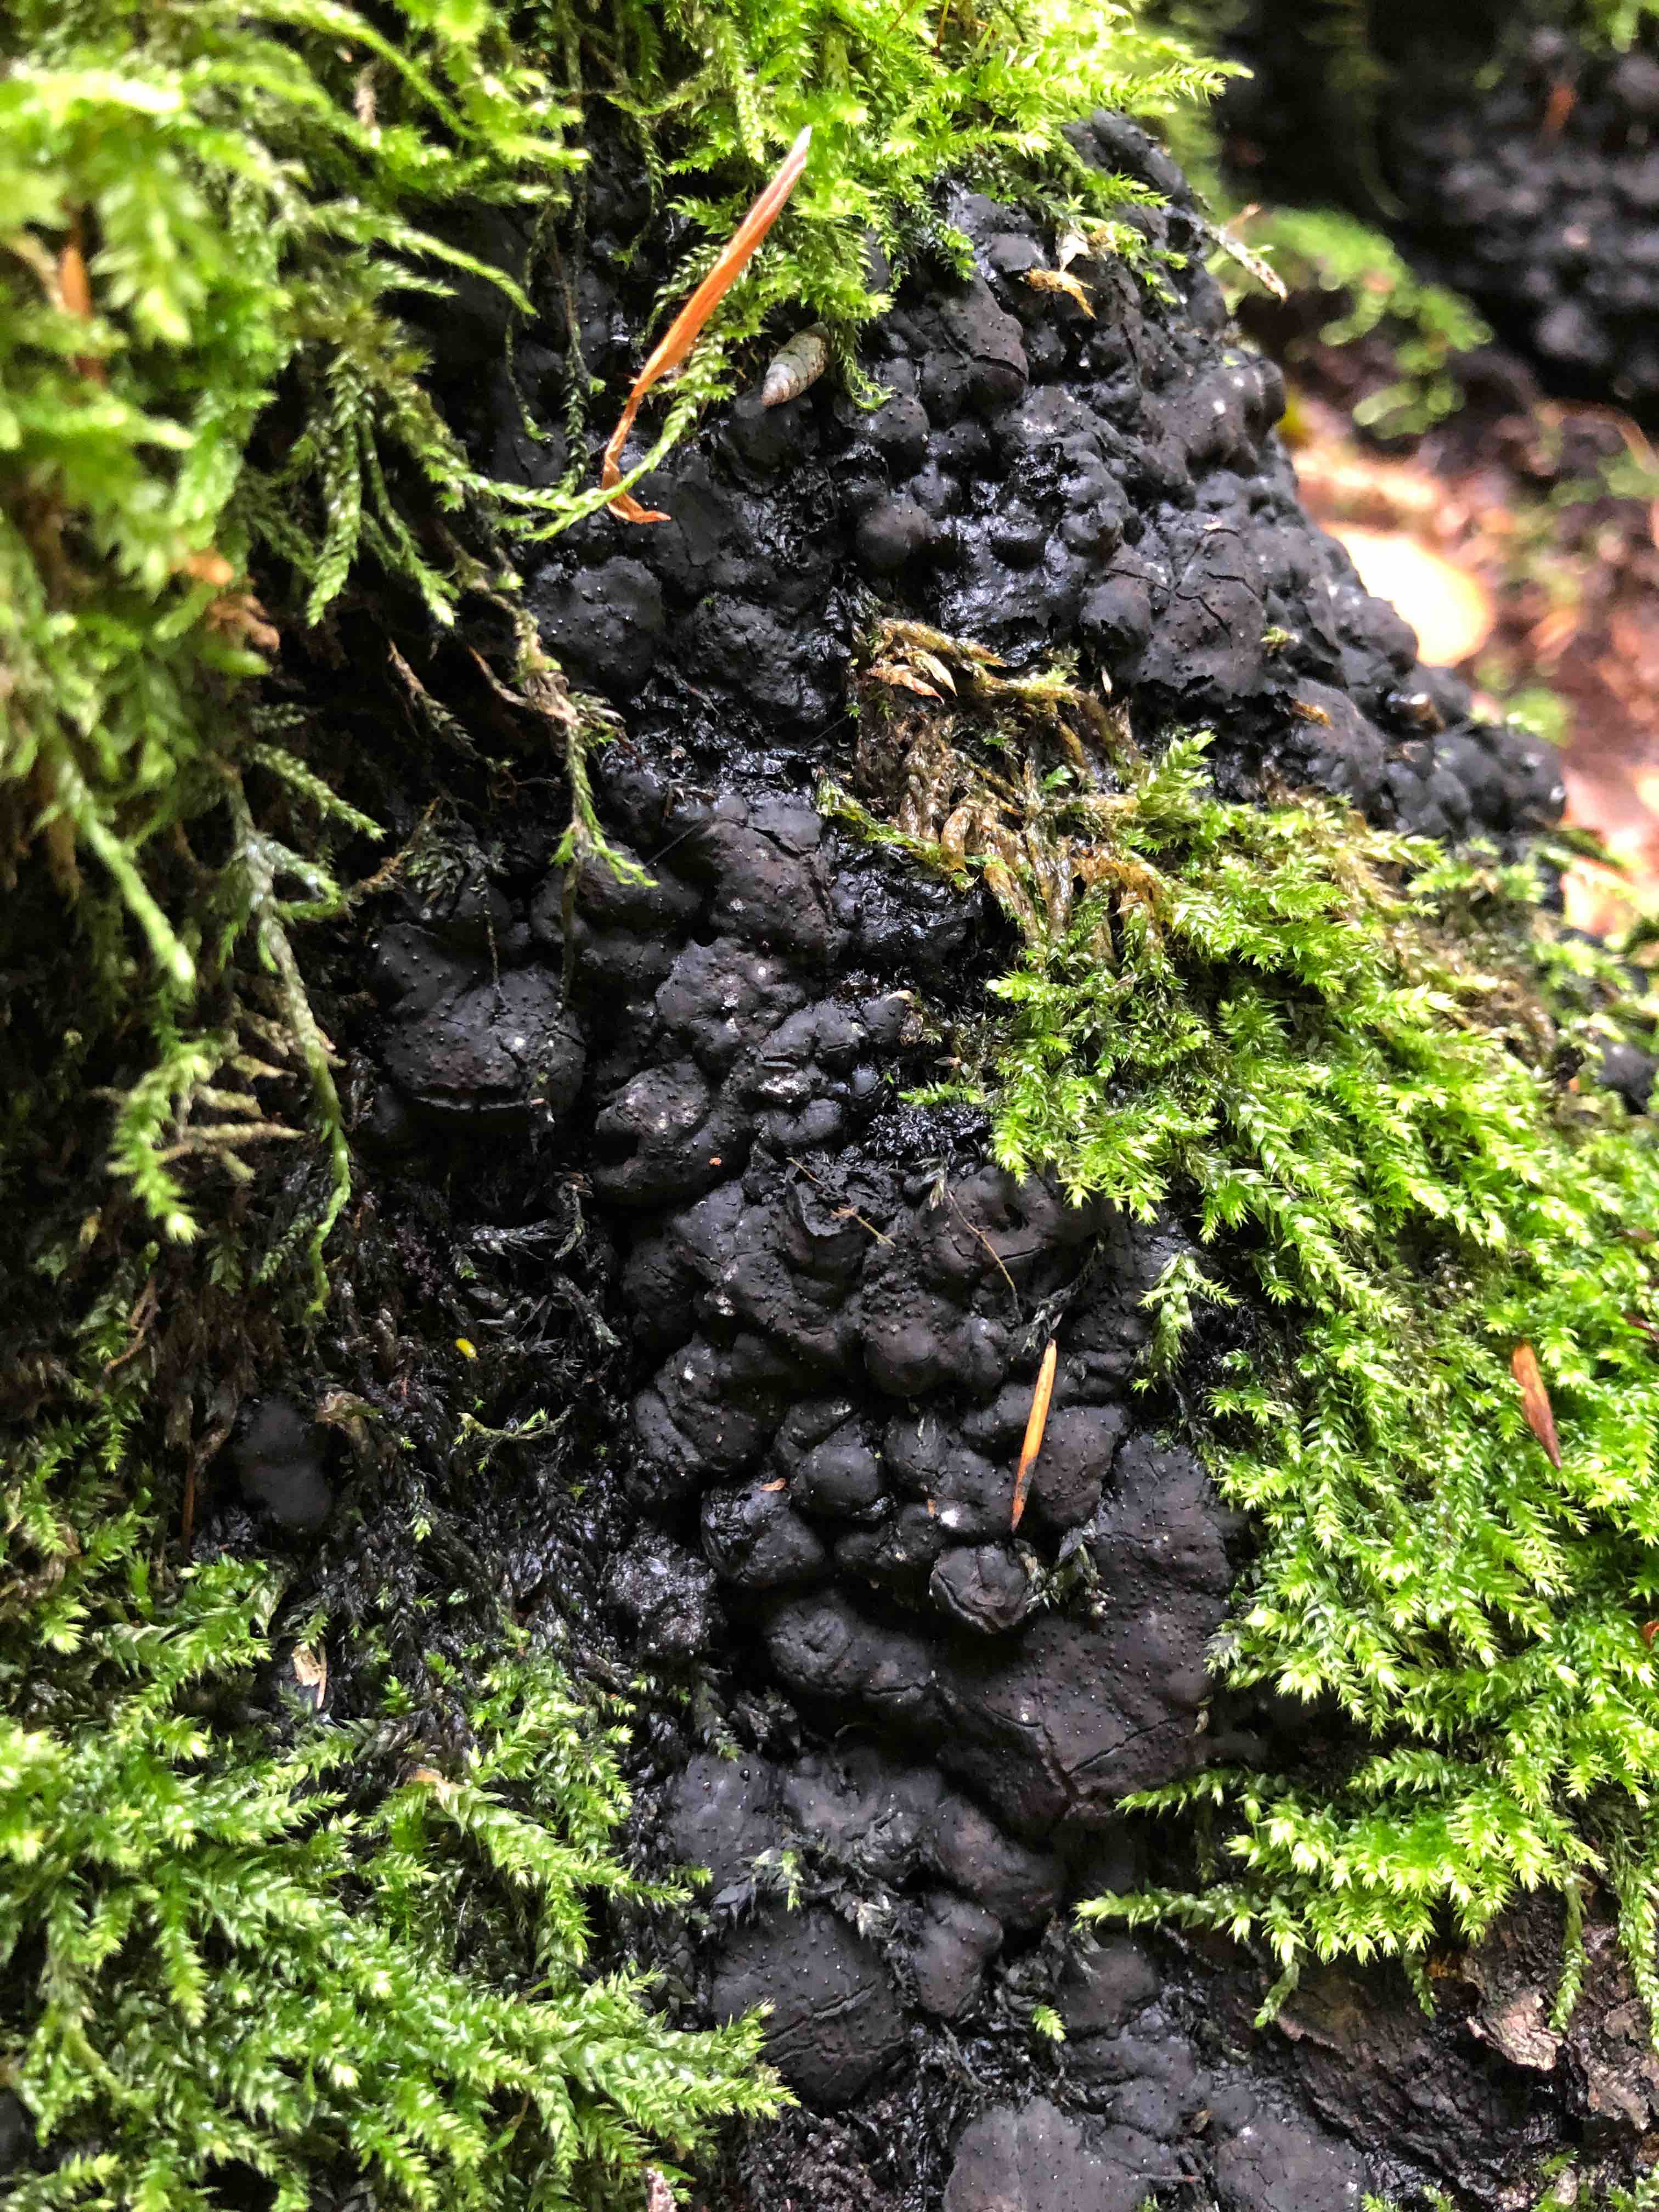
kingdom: Fungi
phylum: Ascomycota
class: Sordariomycetes
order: Xylariales
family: Xylariaceae
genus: Kretzschmaria
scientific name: Kretzschmaria deusta
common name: stor kulsvamp
